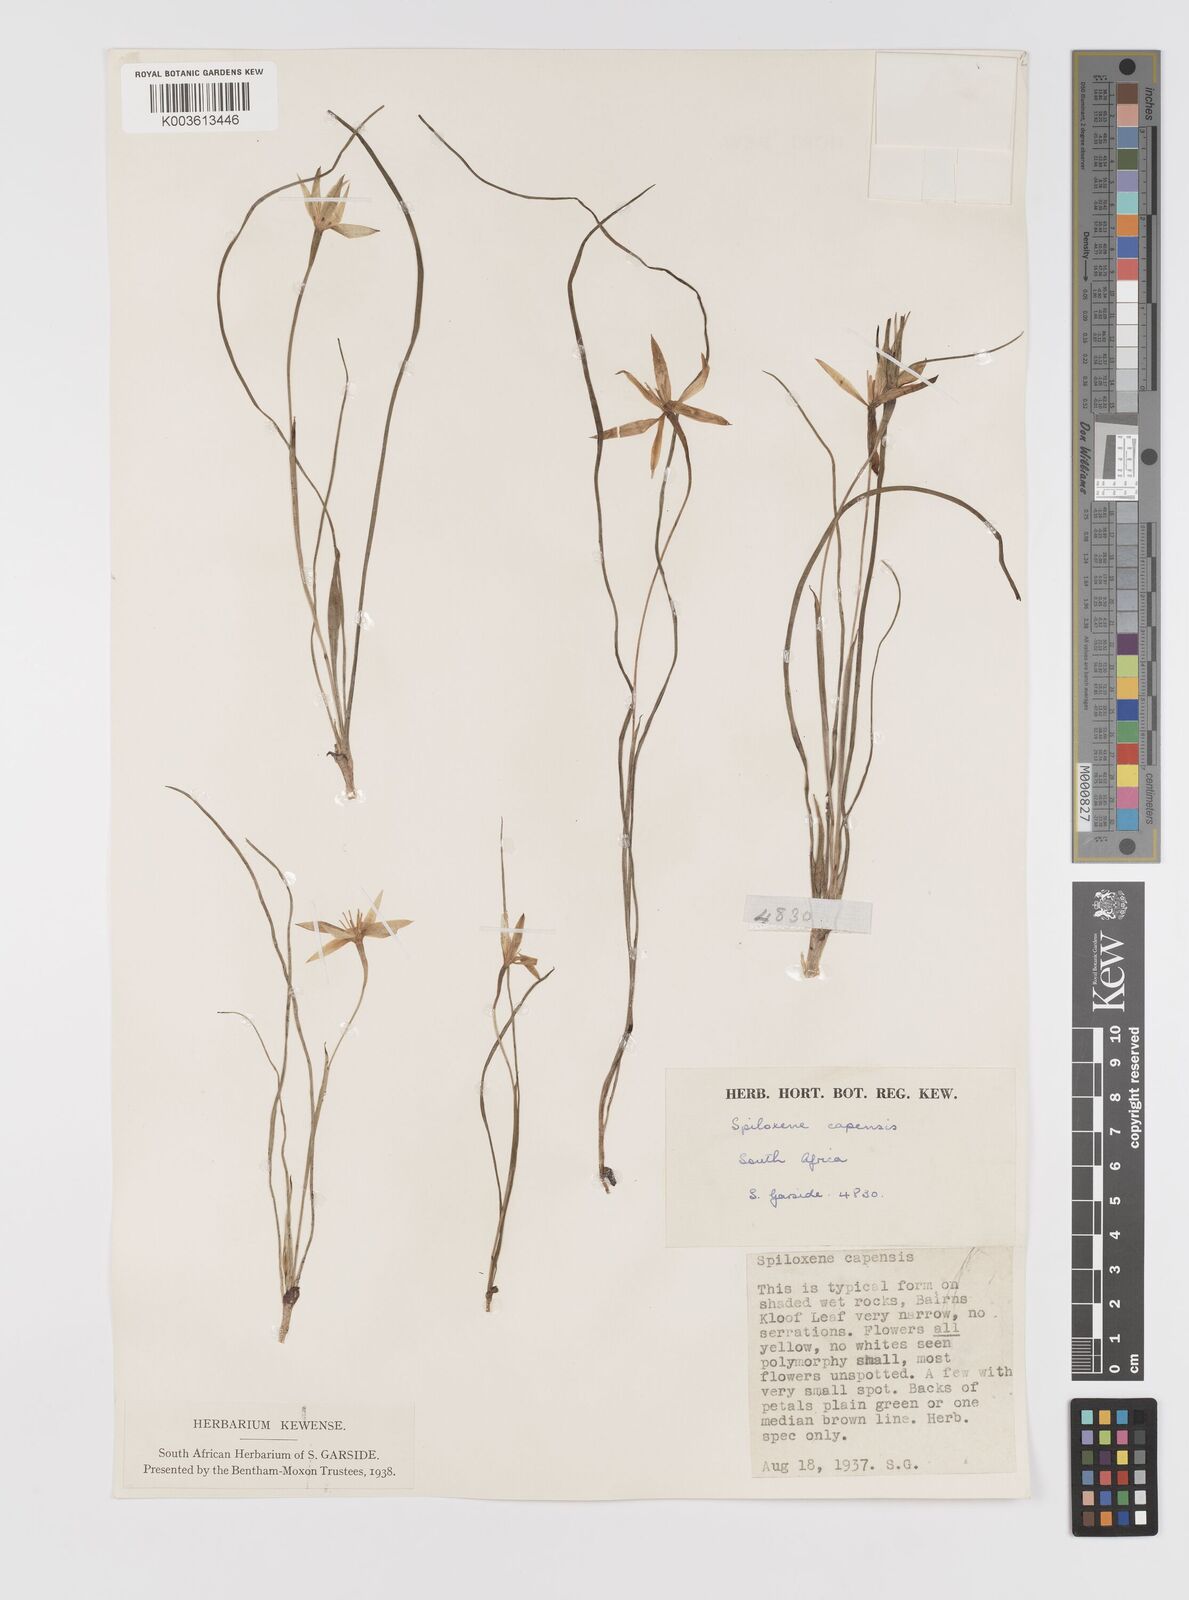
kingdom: Plantae
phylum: Tracheophyta
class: Liliopsida
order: Asparagales
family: Hypoxidaceae
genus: Pauridia
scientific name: Pauridia capensis
